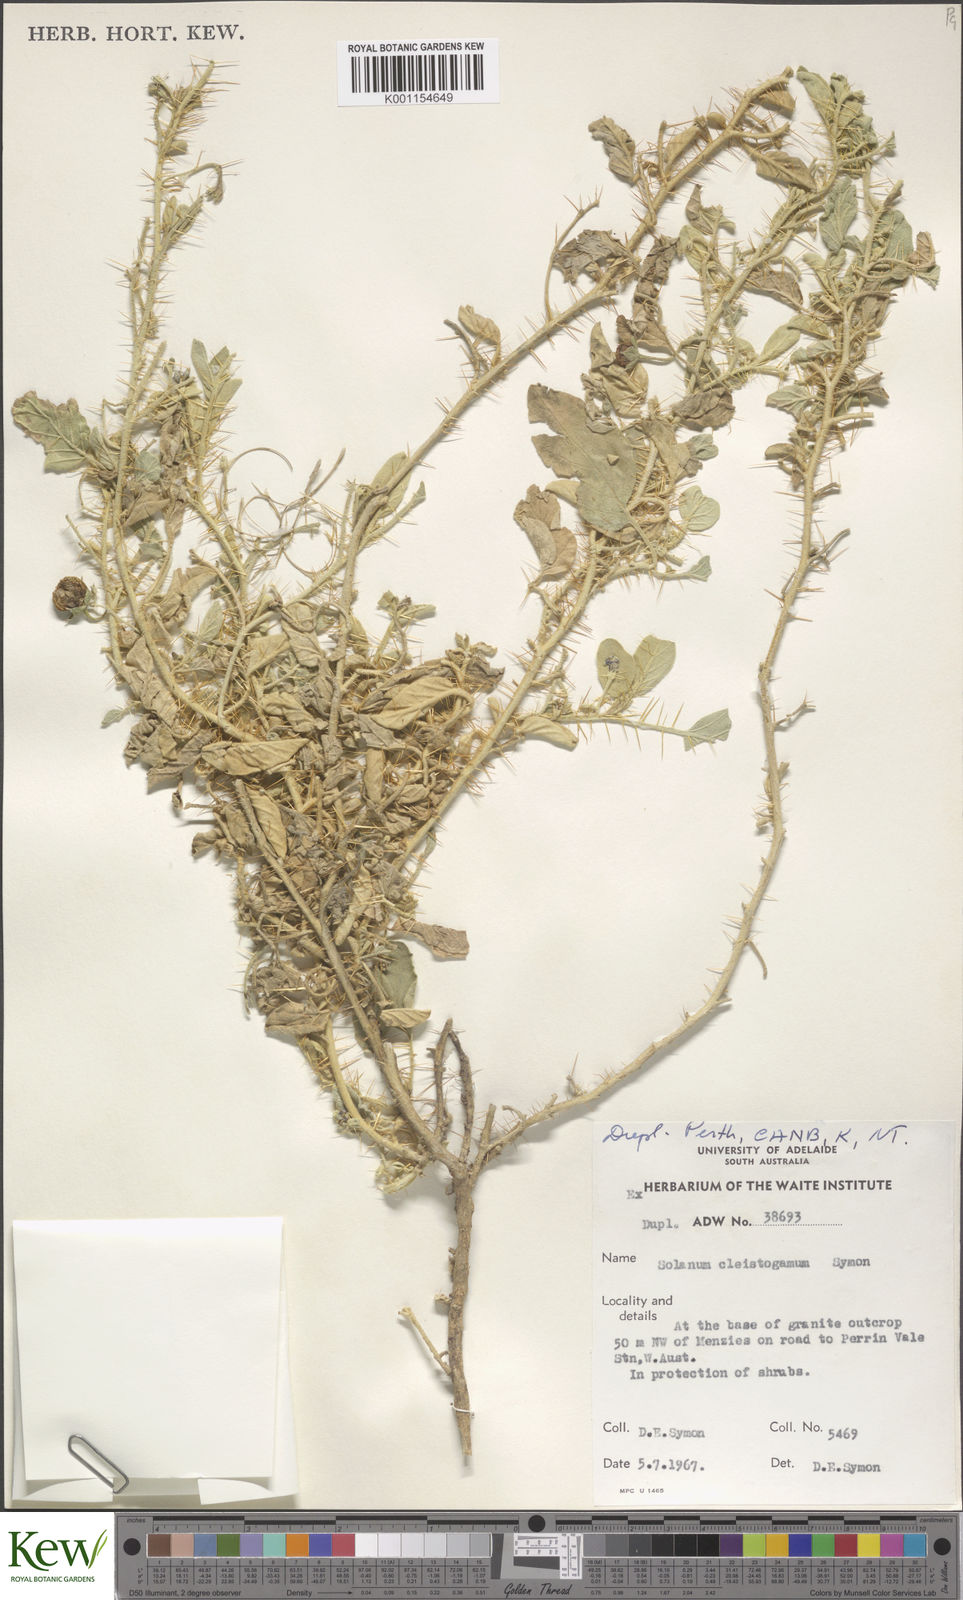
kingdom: Plantae
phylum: Tracheophyta
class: Magnoliopsida
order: Solanales
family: Solanaceae
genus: Solanum
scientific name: Solanum cleistogamum
